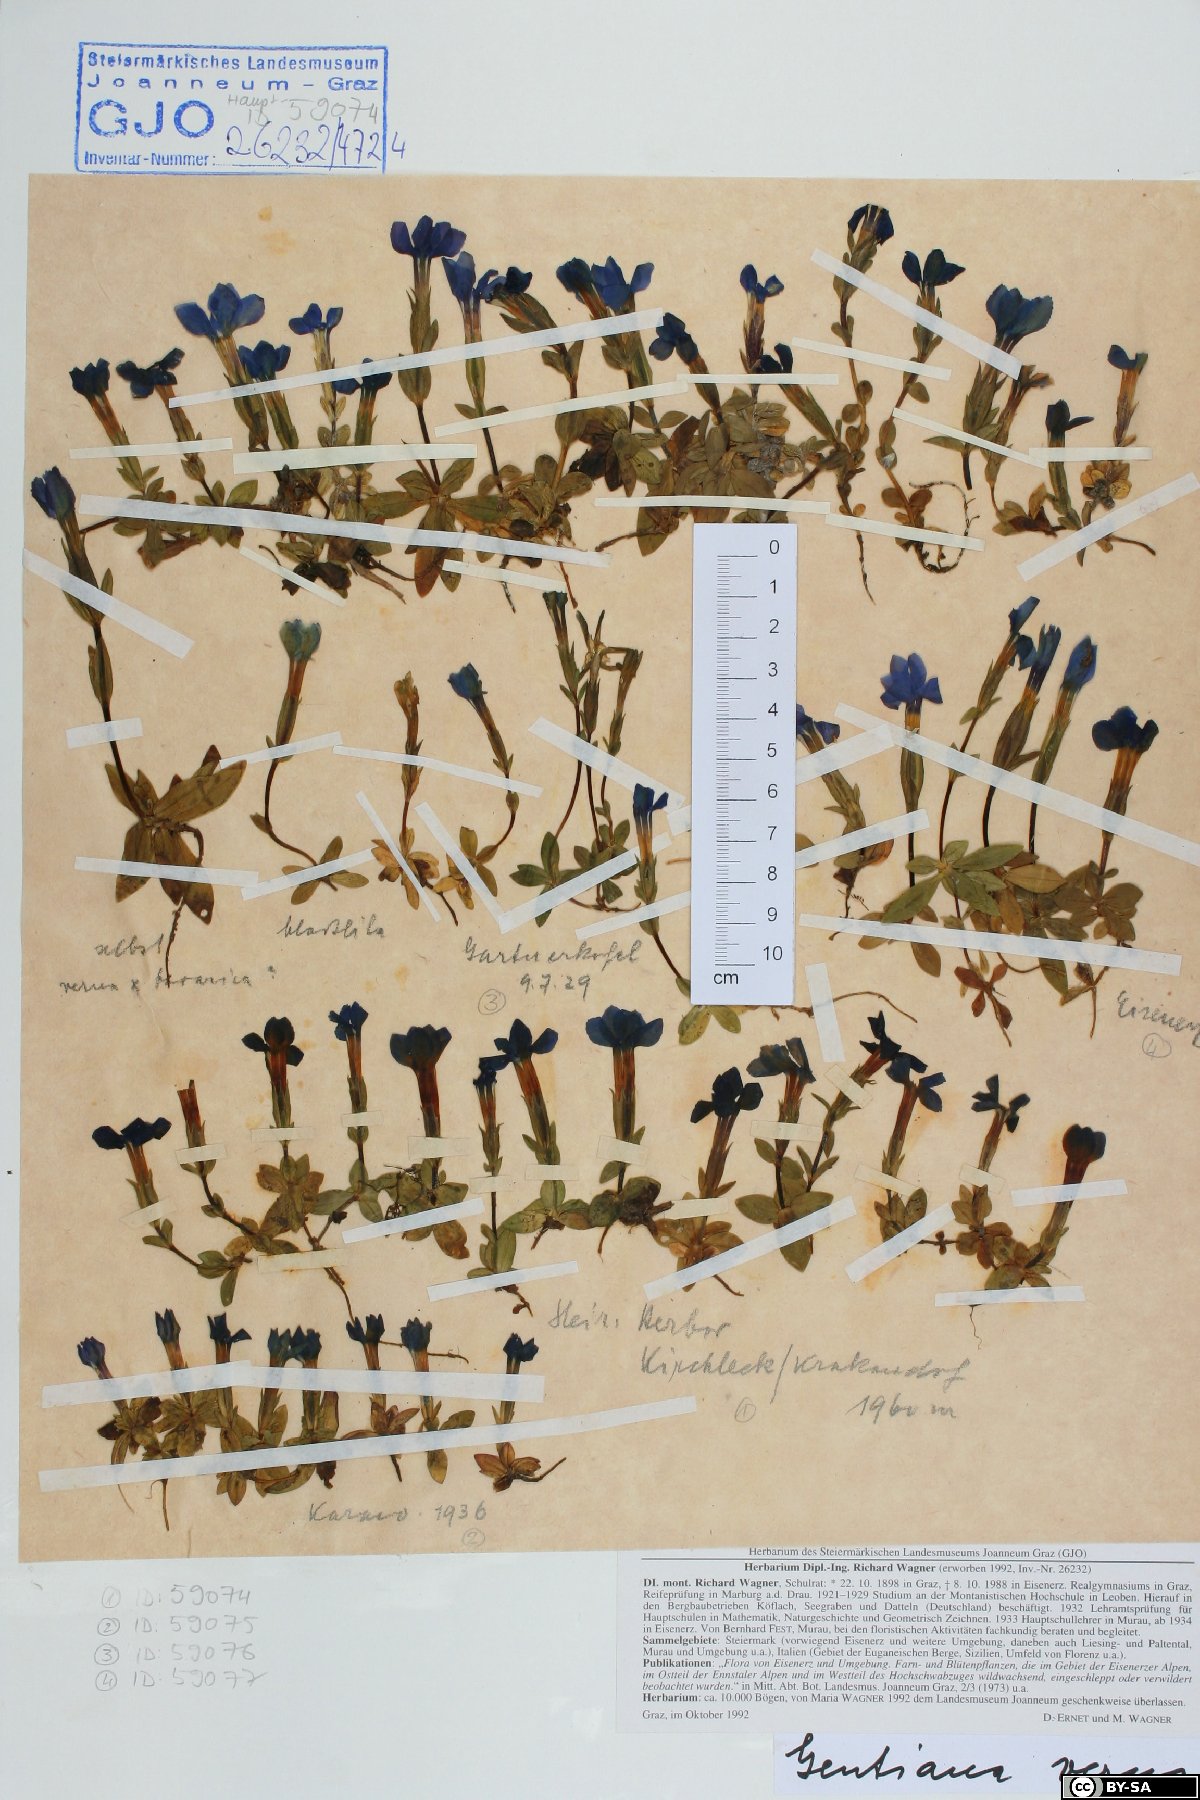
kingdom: Plantae
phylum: Tracheophyta
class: Magnoliopsida
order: Gentianales
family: Gentianaceae
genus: Gentiana
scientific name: Gentiana verna
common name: Spring gentian
